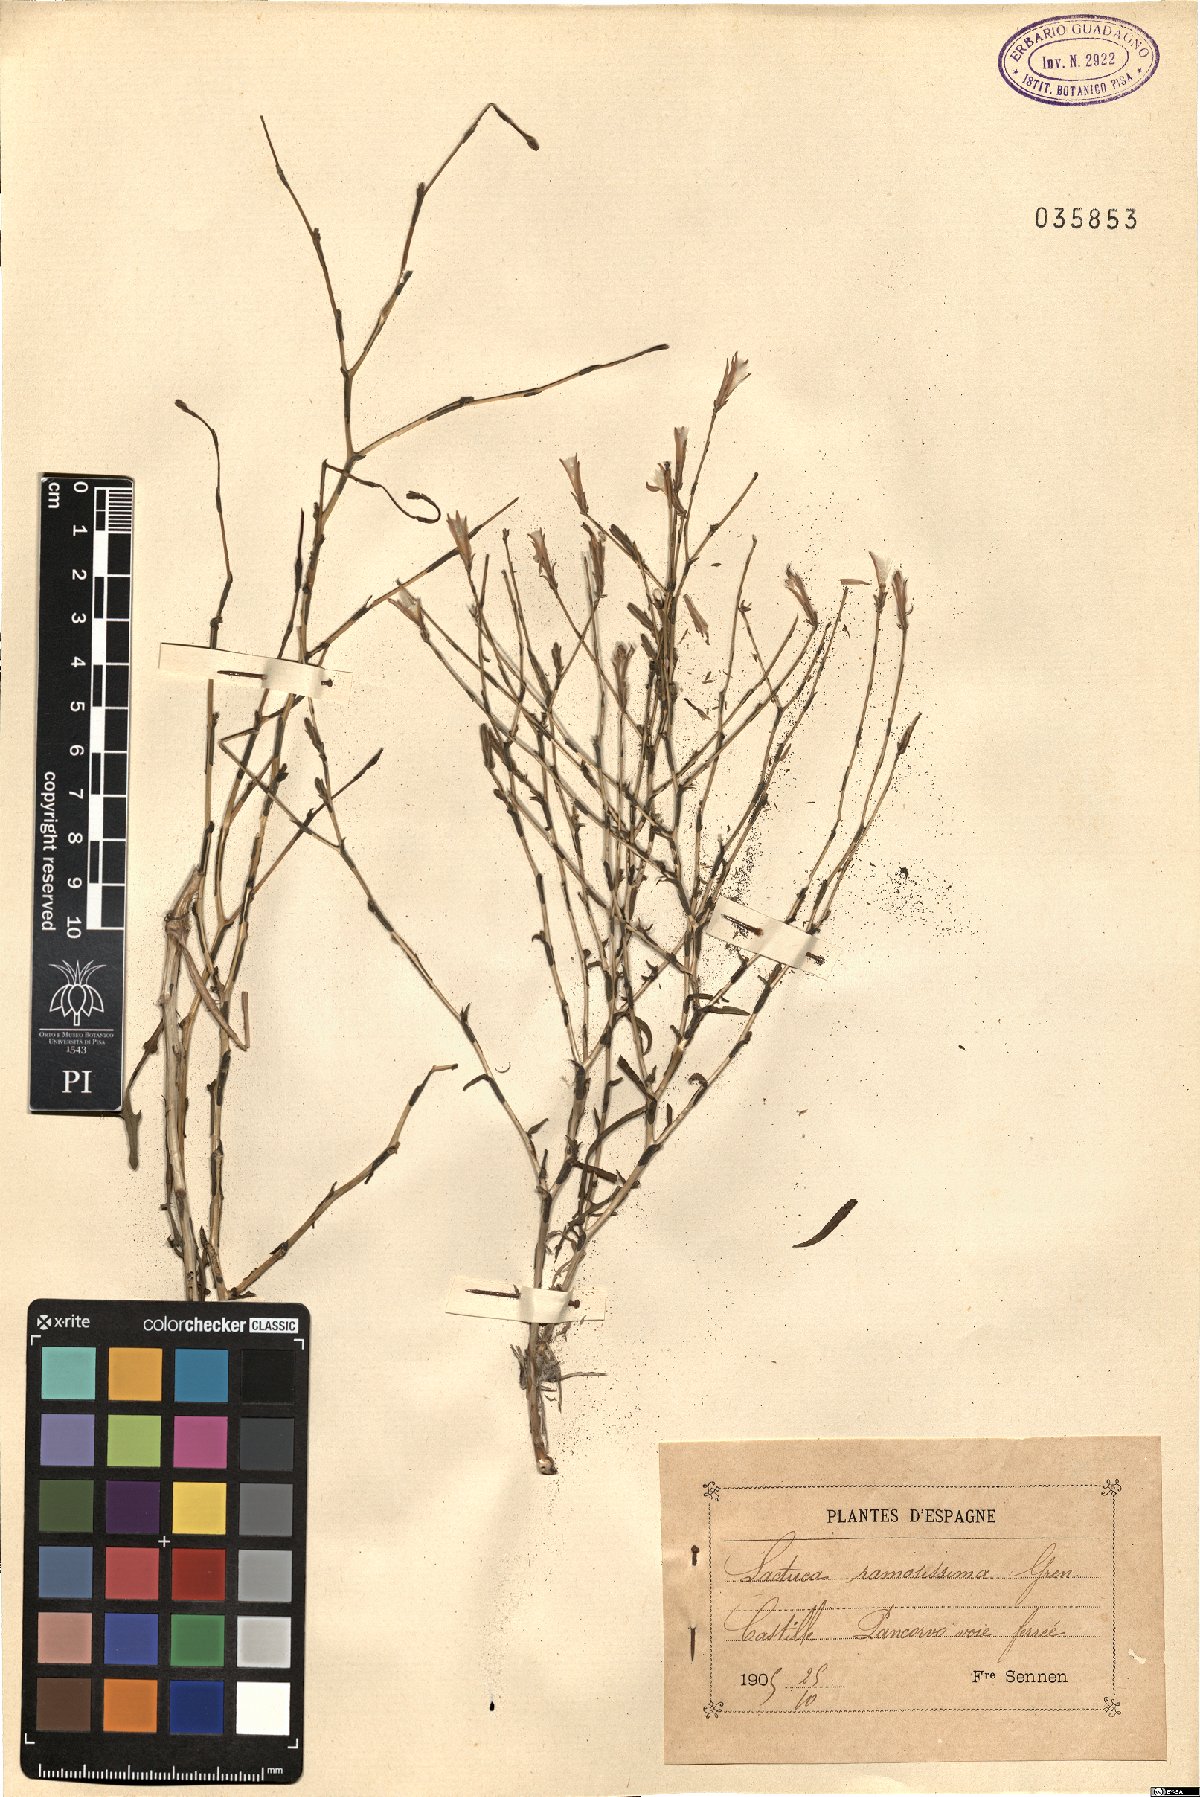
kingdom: Plantae
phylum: Tracheophyta
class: Magnoliopsida
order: Asterales
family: Asteraceae
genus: Lactuca
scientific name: Lactuca viminea
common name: Pliant lettuce
